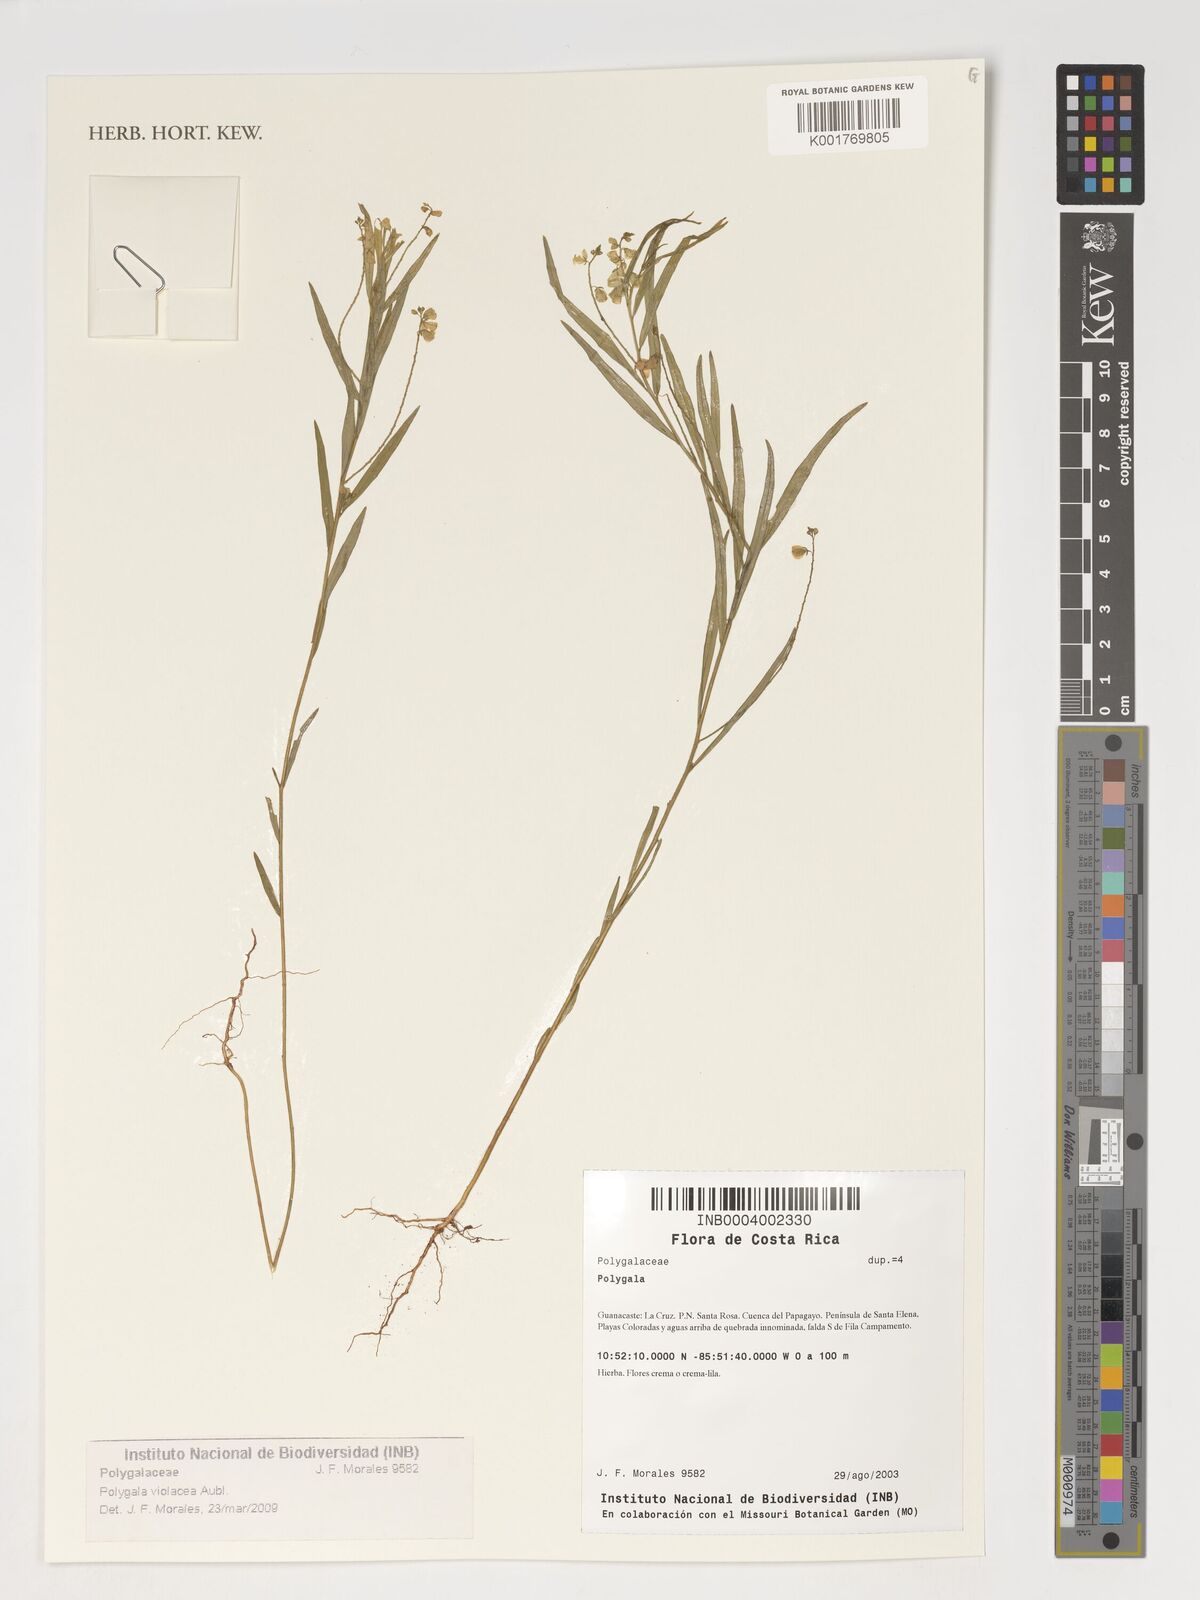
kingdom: Plantae
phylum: Tracheophyta
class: Magnoliopsida
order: Fabales
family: Polygalaceae
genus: Asemeia
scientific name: Asemeia violacea
